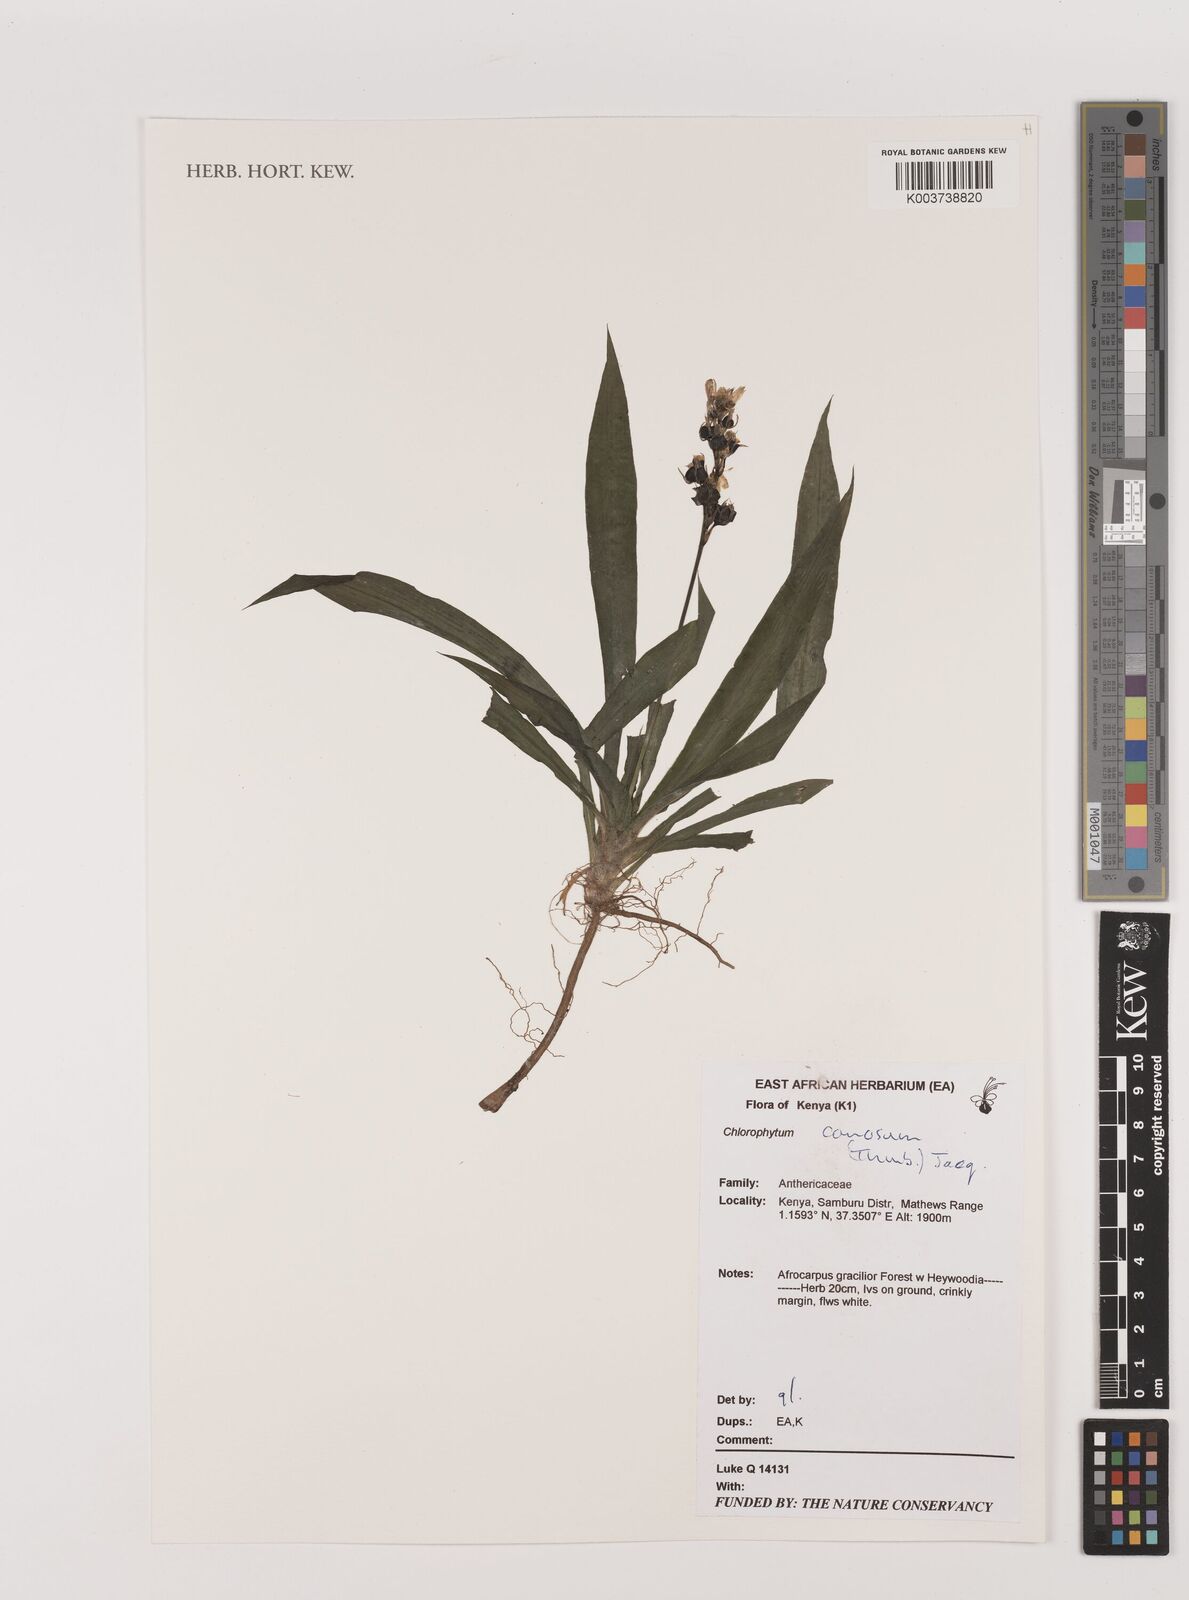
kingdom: Plantae
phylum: Tracheophyta
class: Liliopsida
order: Asparagales
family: Asparagaceae
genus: Chlorophytum
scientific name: Chlorophytum comosum
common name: Spider plant
